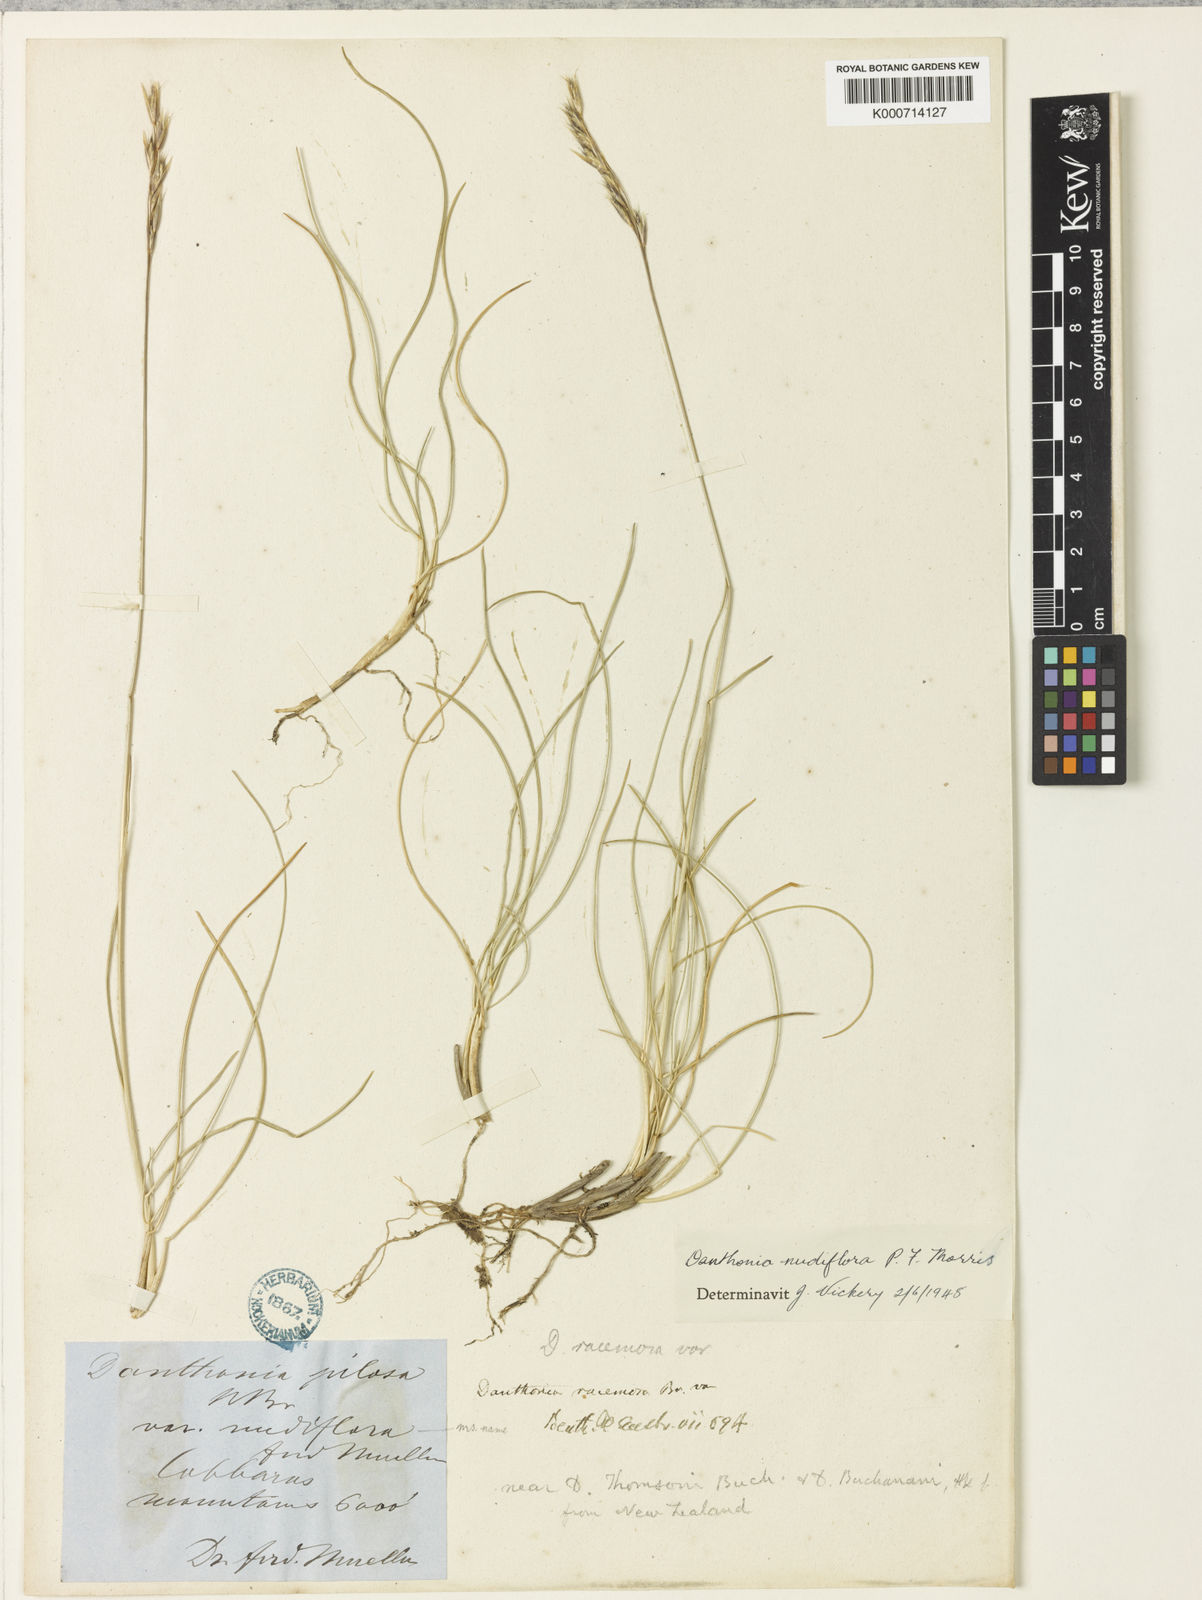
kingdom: Plantae
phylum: Tracheophyta
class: Liliopsida
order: Poales
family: Poaceae
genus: Rytidosperma
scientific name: Rytidosperma nudiflorum
